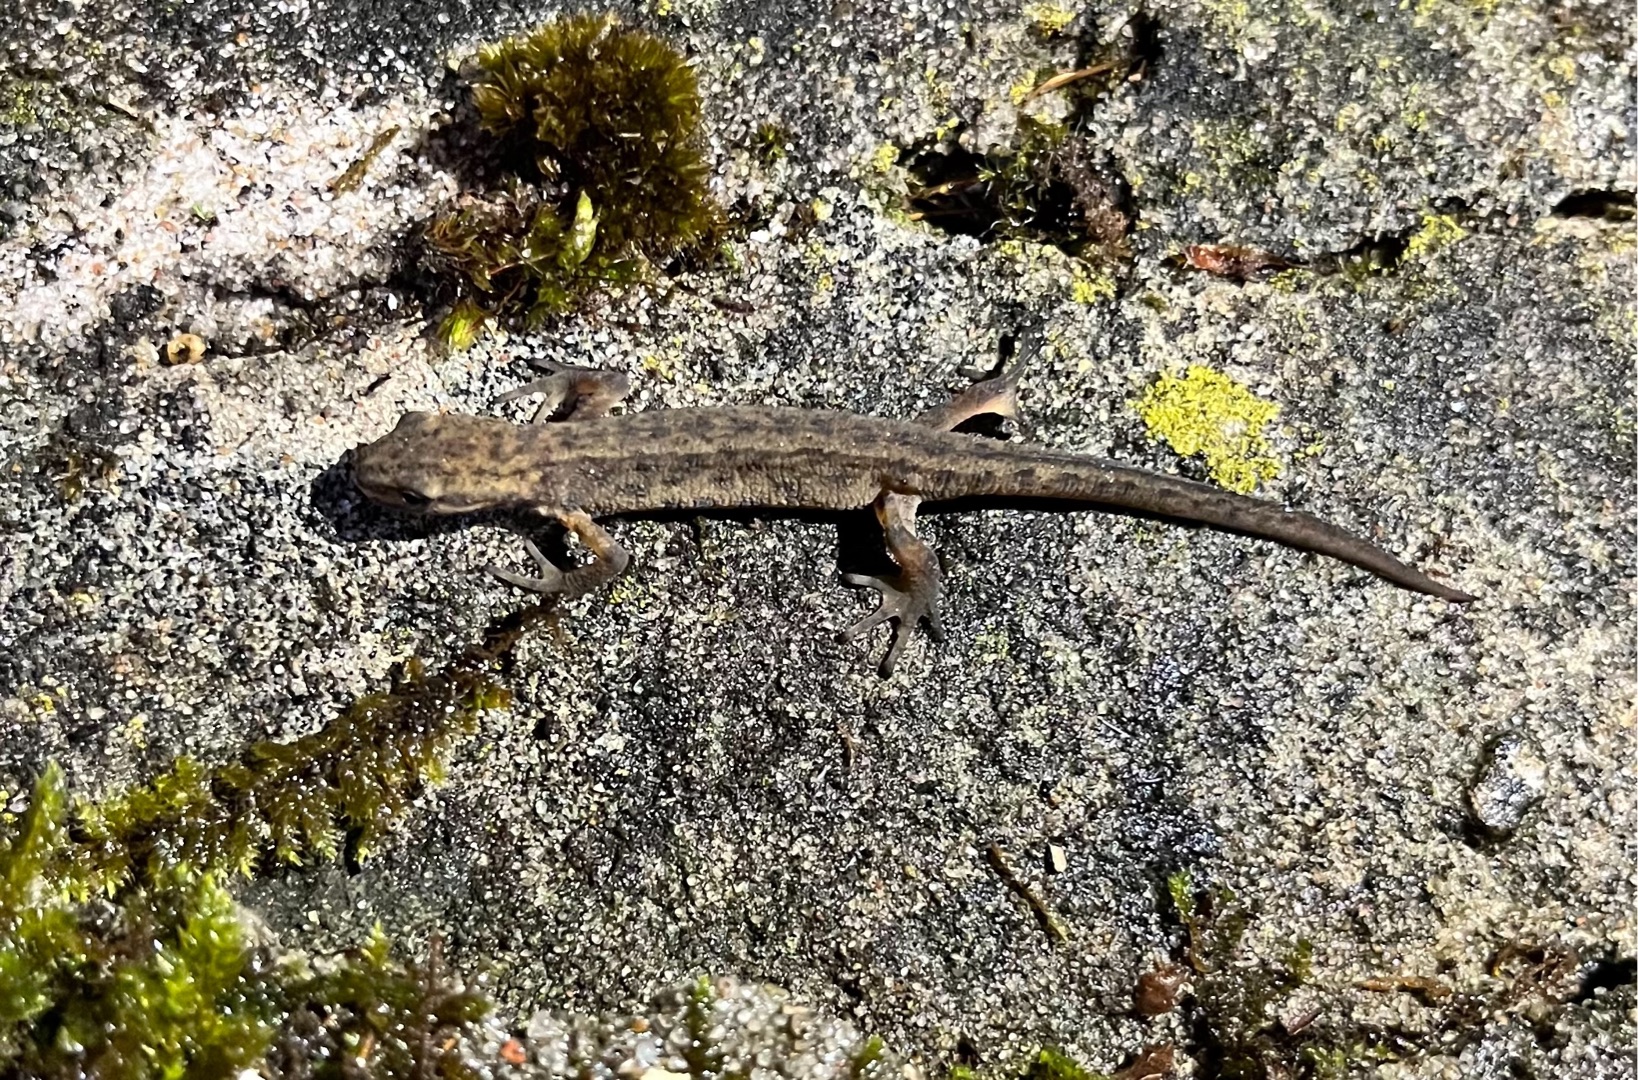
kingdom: Animalia
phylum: Chordata
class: Amphibia
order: Caudata
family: Salamandridae
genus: Lissotriton
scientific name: Lissotriton vulgaris
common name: Lille vandsalamander
